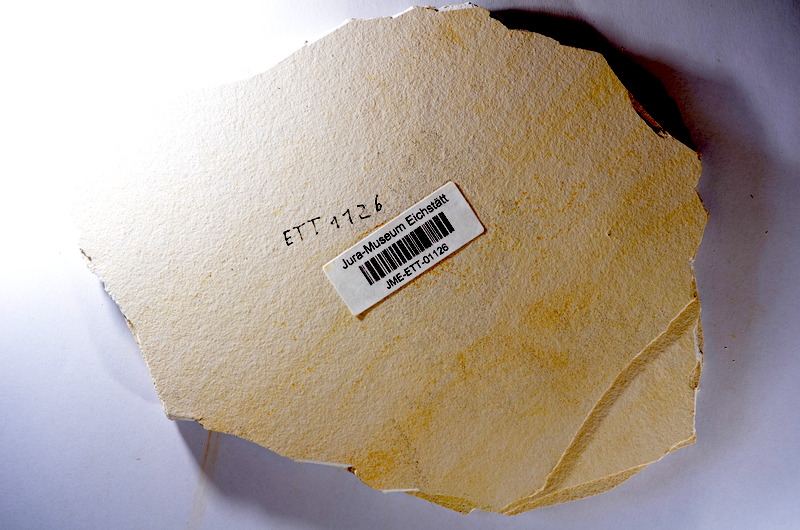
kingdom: Animalia
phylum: Chordata
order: Salmoniformes
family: Orthogonikleithridae
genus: Orthogonikleithrus
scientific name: Orthogonikleithrus hoelli
